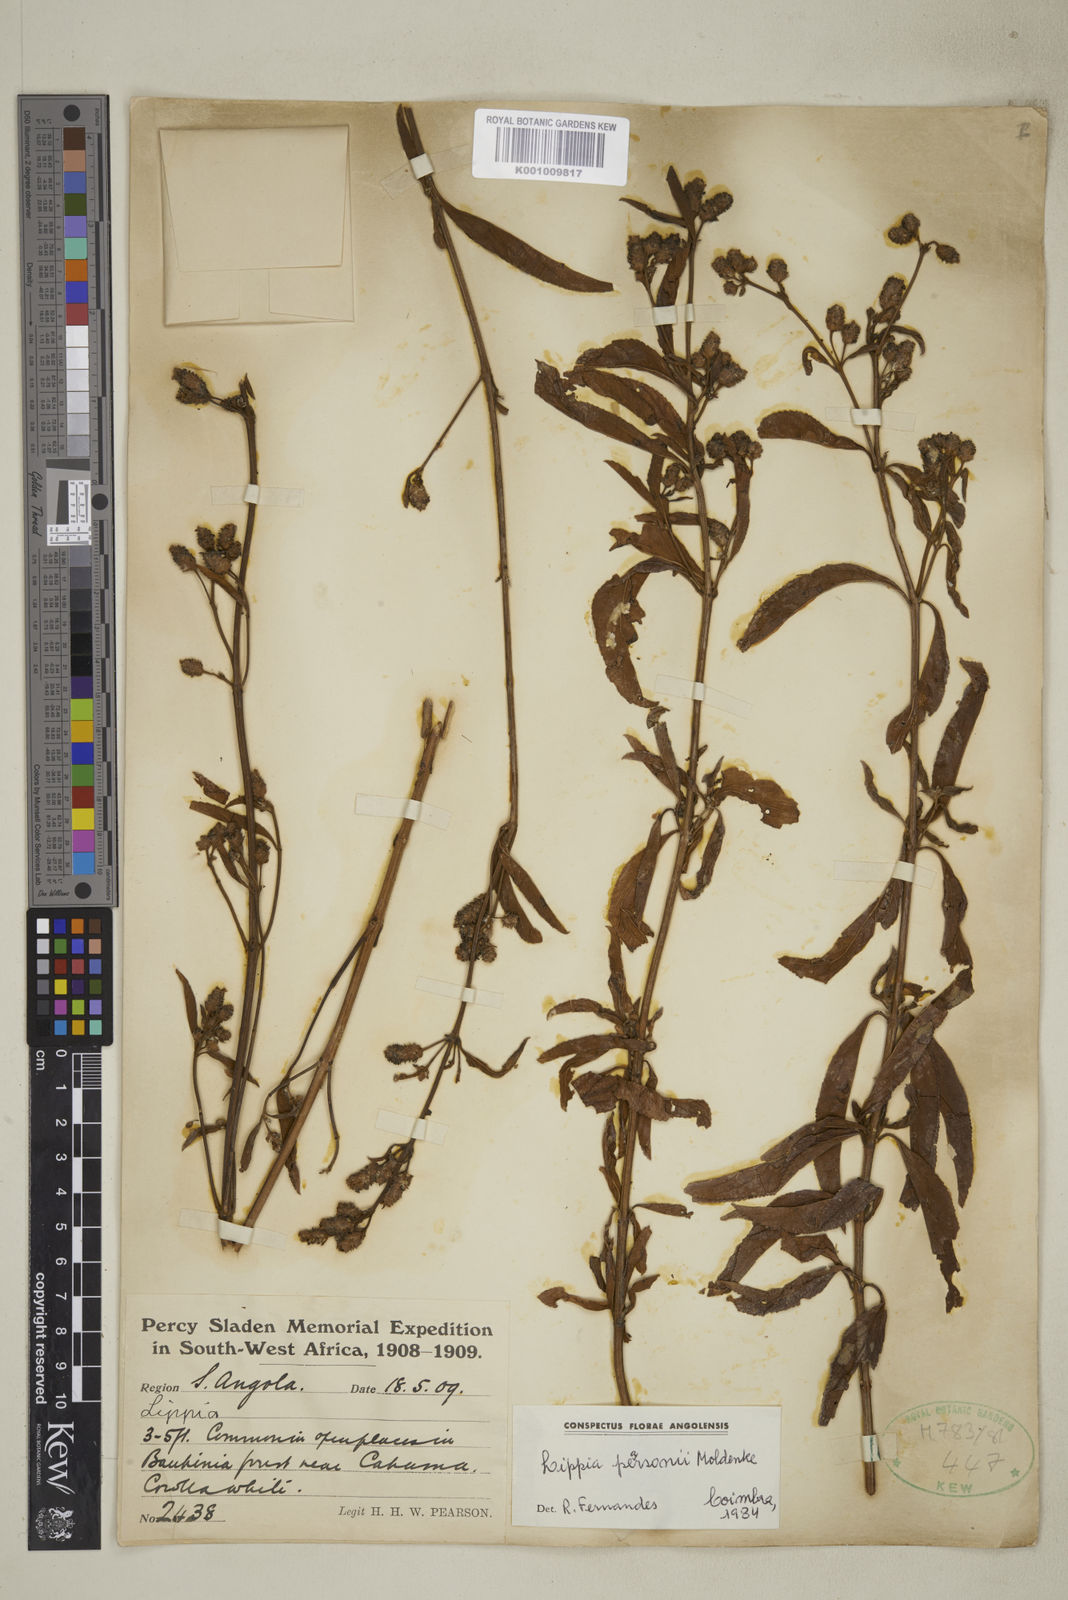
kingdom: Plantae
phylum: Tracheophyta
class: Magnoliopsida
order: Lamiales
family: Verbenaceae
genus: Lippia
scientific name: Lippia pearsonii
